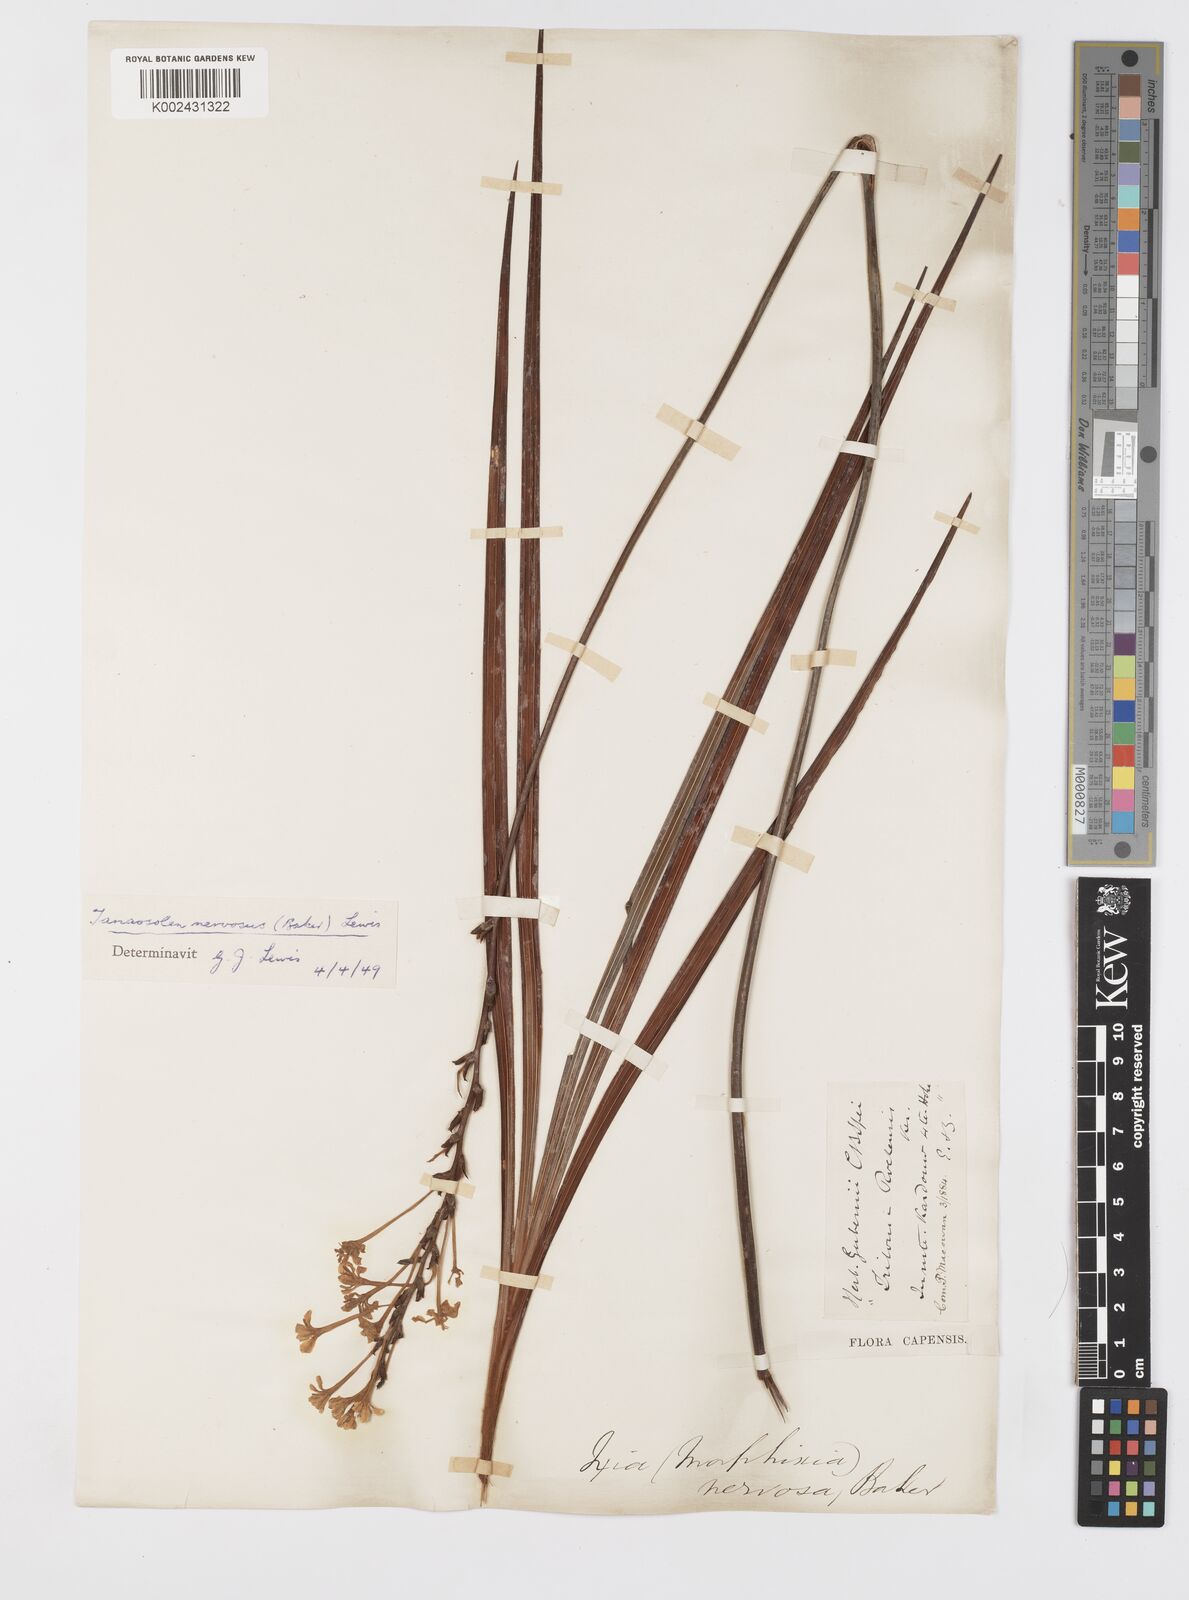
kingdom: Plantae
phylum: Tracheophyta
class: Liliopsida
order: Asparagales
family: Iridaceae
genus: Tritoniopsis
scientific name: Tritoniopsis nervosa
